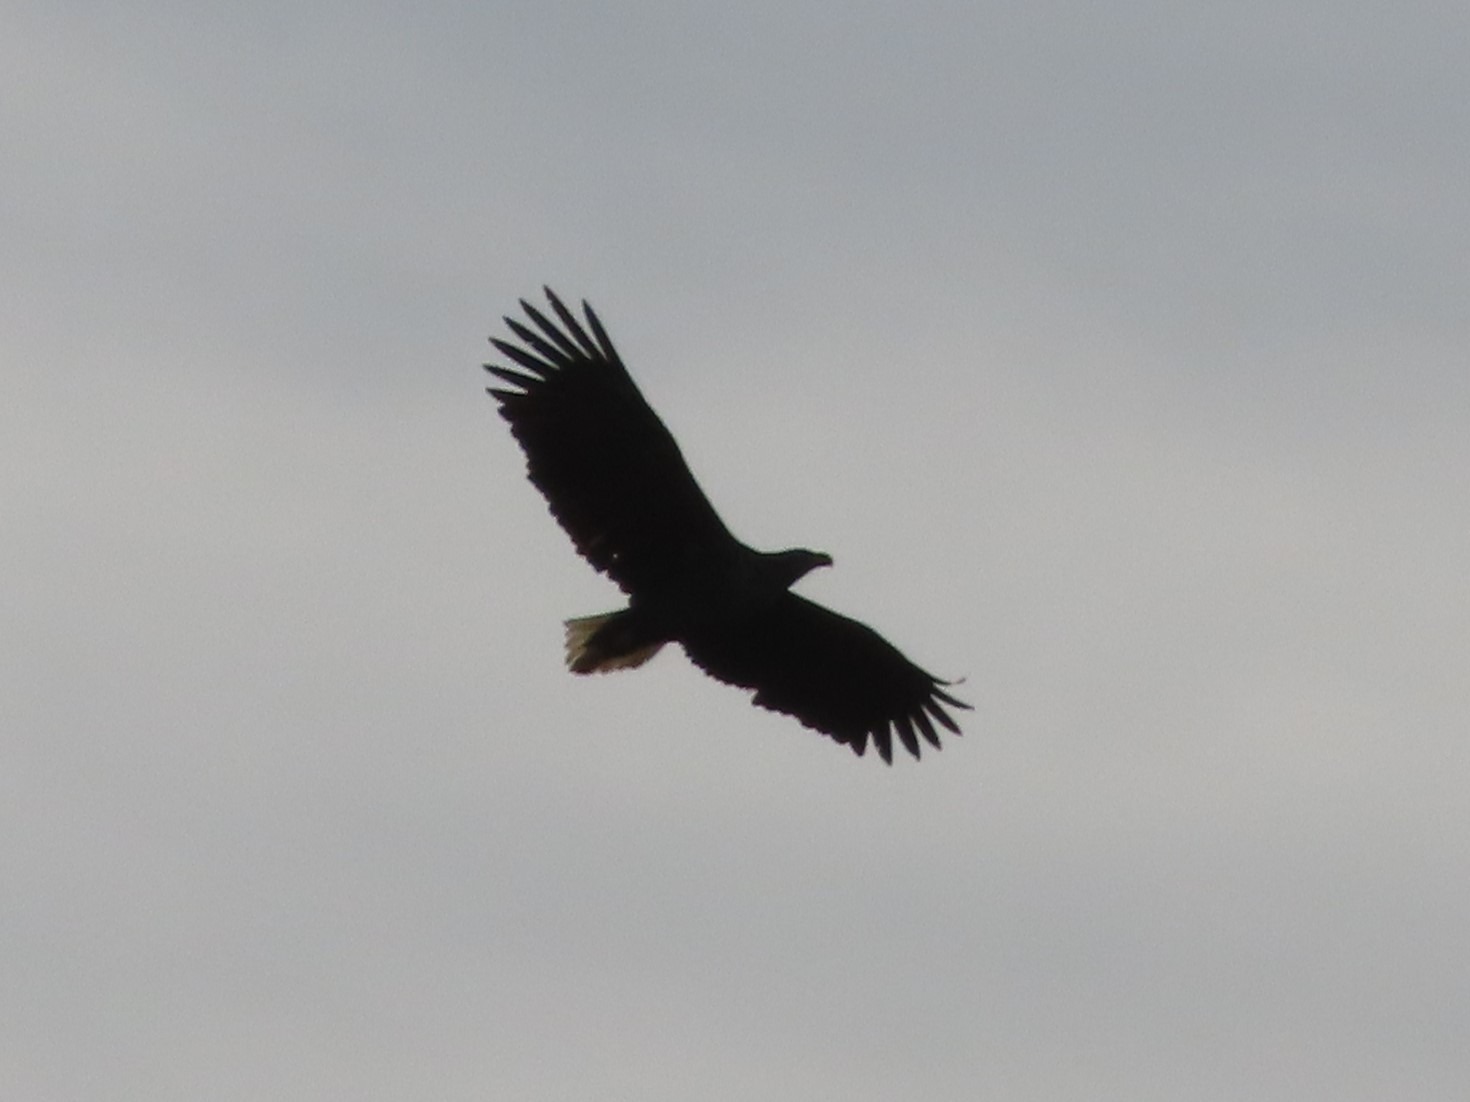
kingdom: Animalia
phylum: Chordata
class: Aves
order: Accipitriformes
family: Accipitridae
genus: Haliaeetus
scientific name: Haliaeetus albicilla
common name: Havørn
